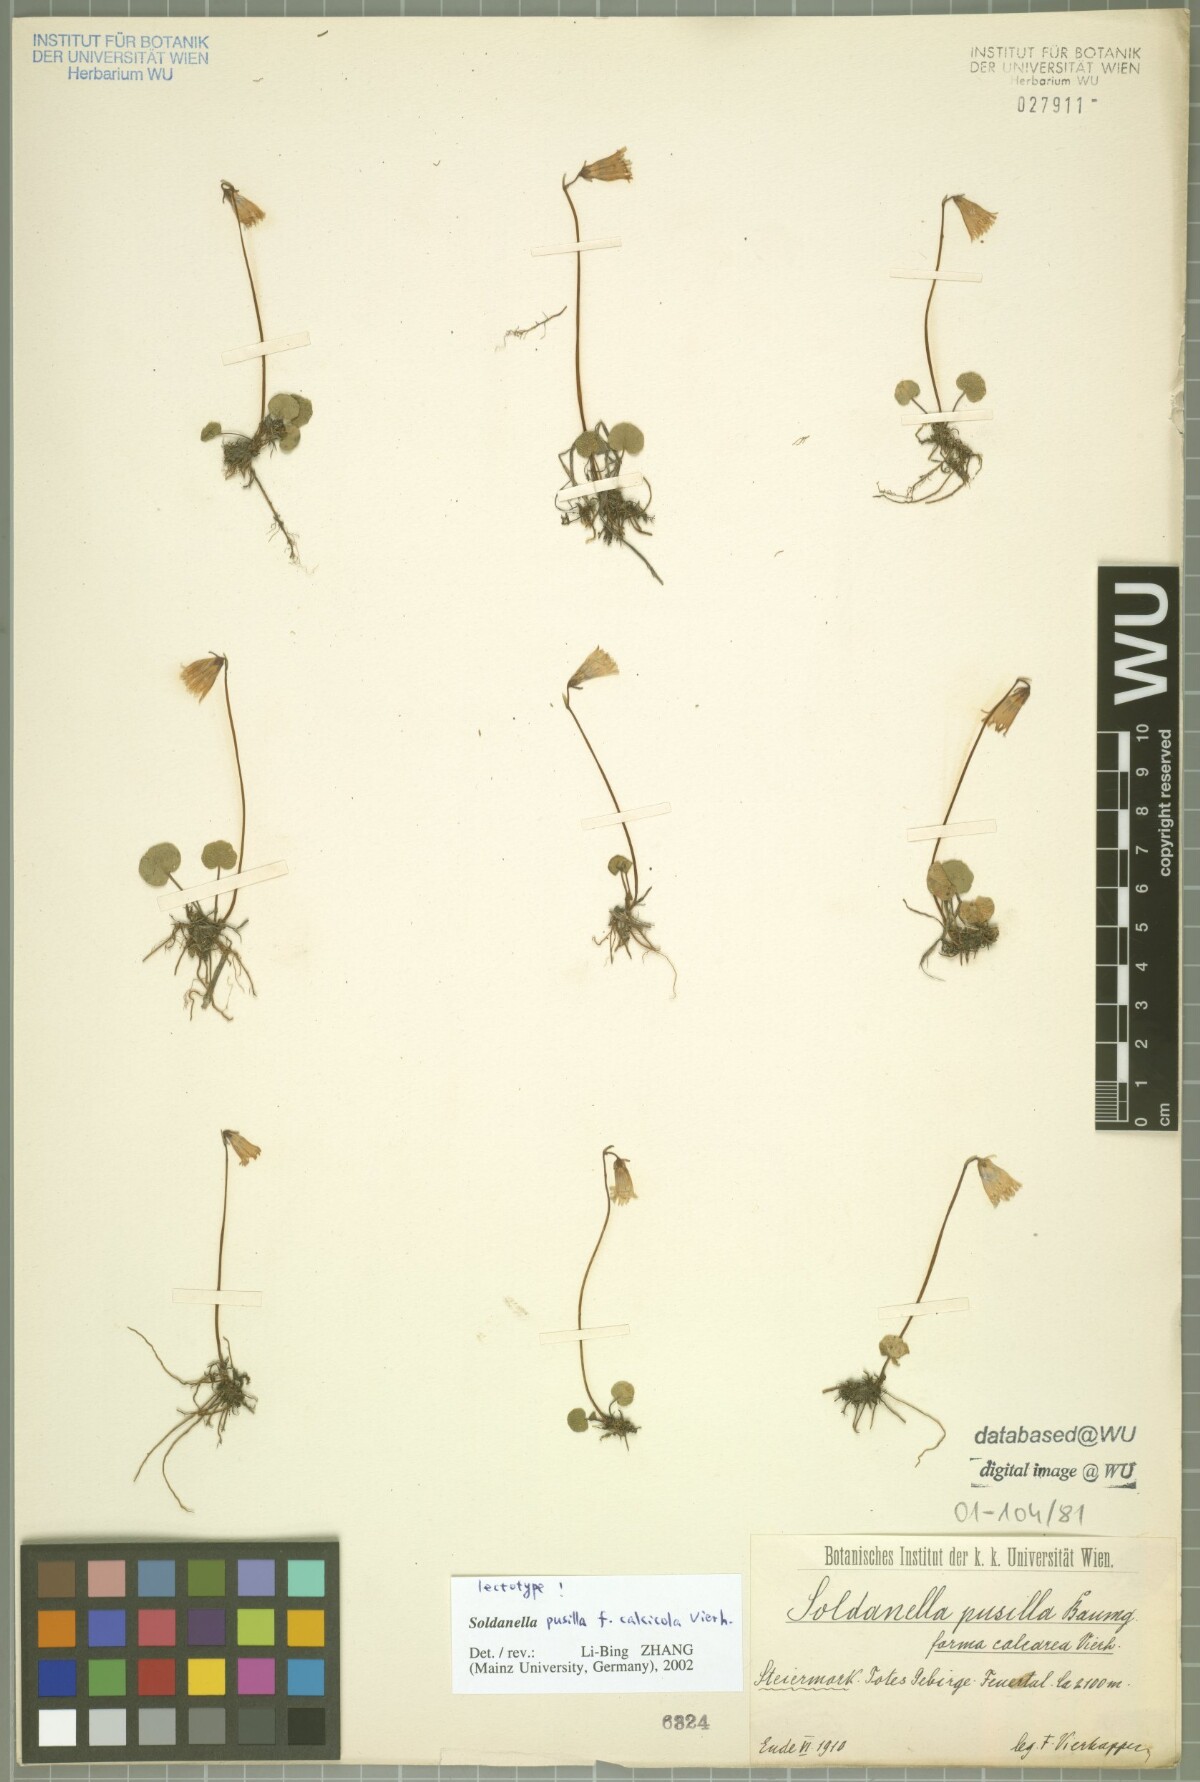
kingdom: Plantae
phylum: Tracheophyta
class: Magnoliopsida
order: Ericales
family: Primulaceae
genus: Soldanella
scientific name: Soldanella alpicola
